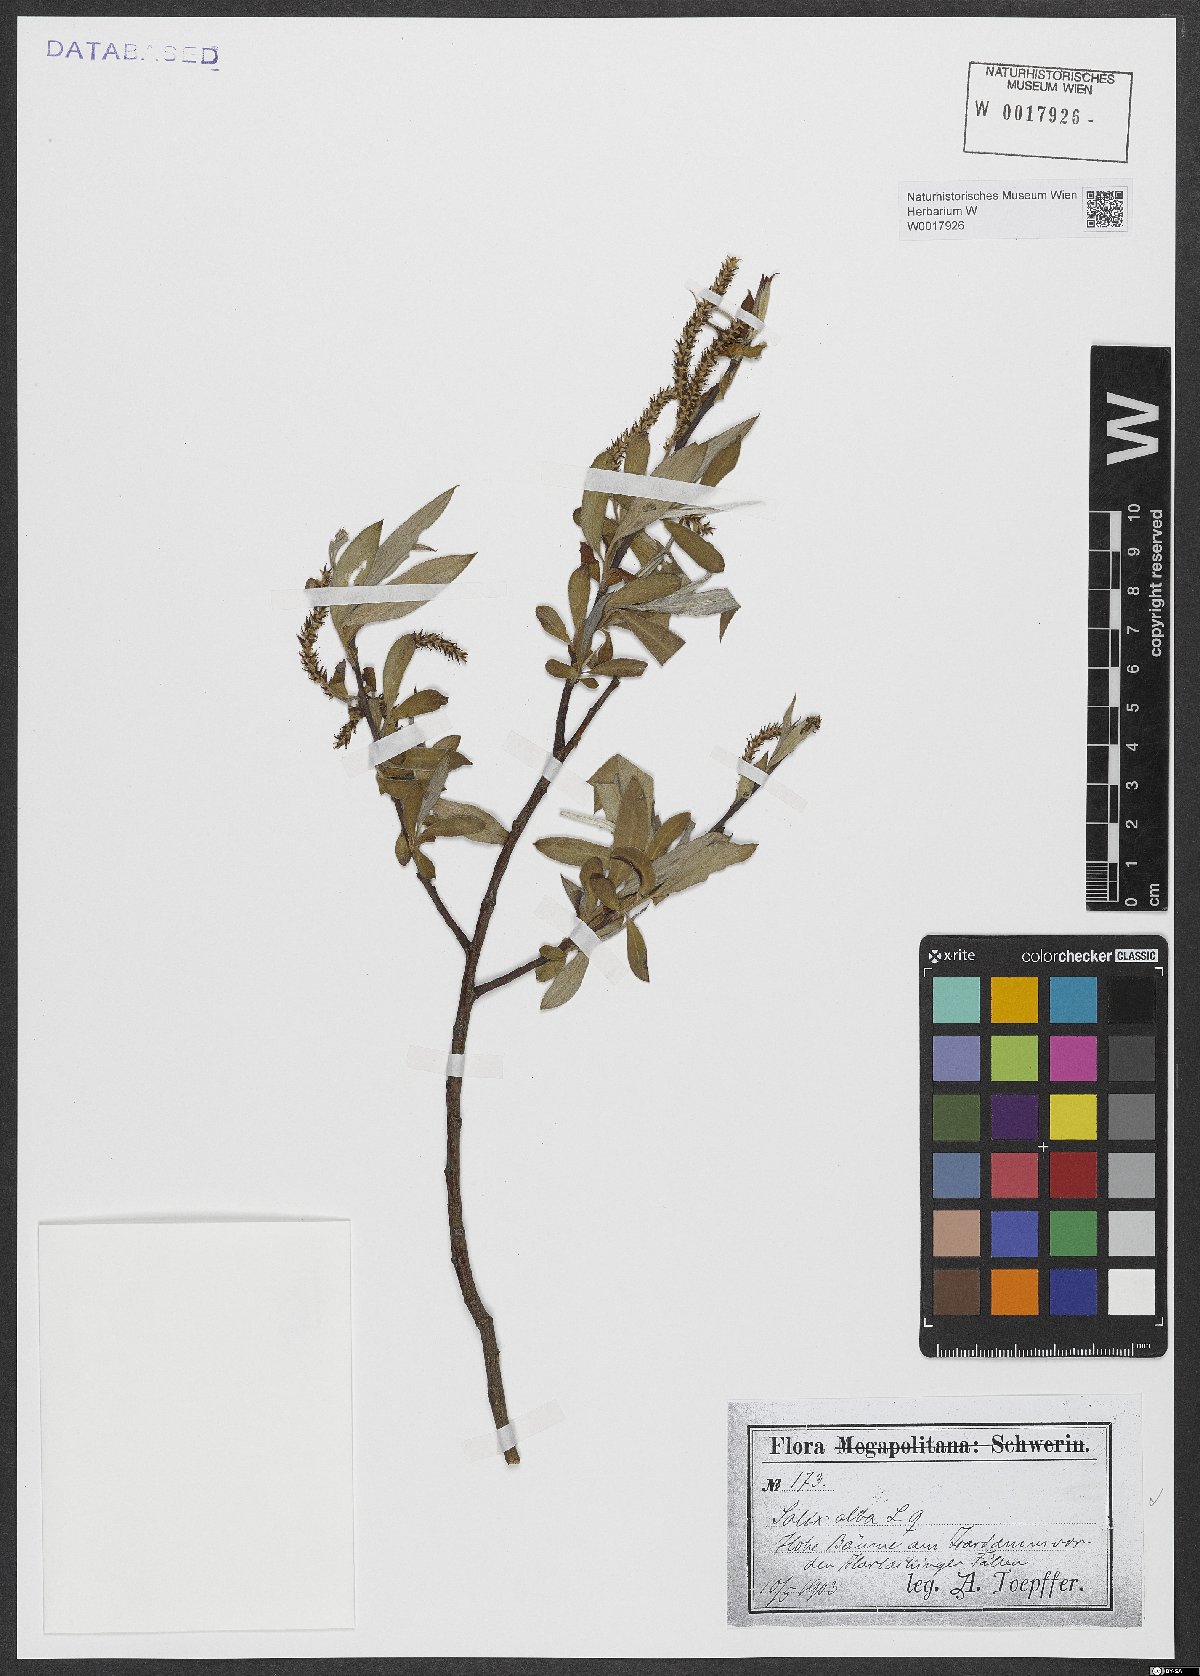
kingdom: Plantae
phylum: Tracheophyta
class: Magnoliopsida
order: Malpighiales
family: Salicaceae
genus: Salix
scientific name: Salix alba
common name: White willow
